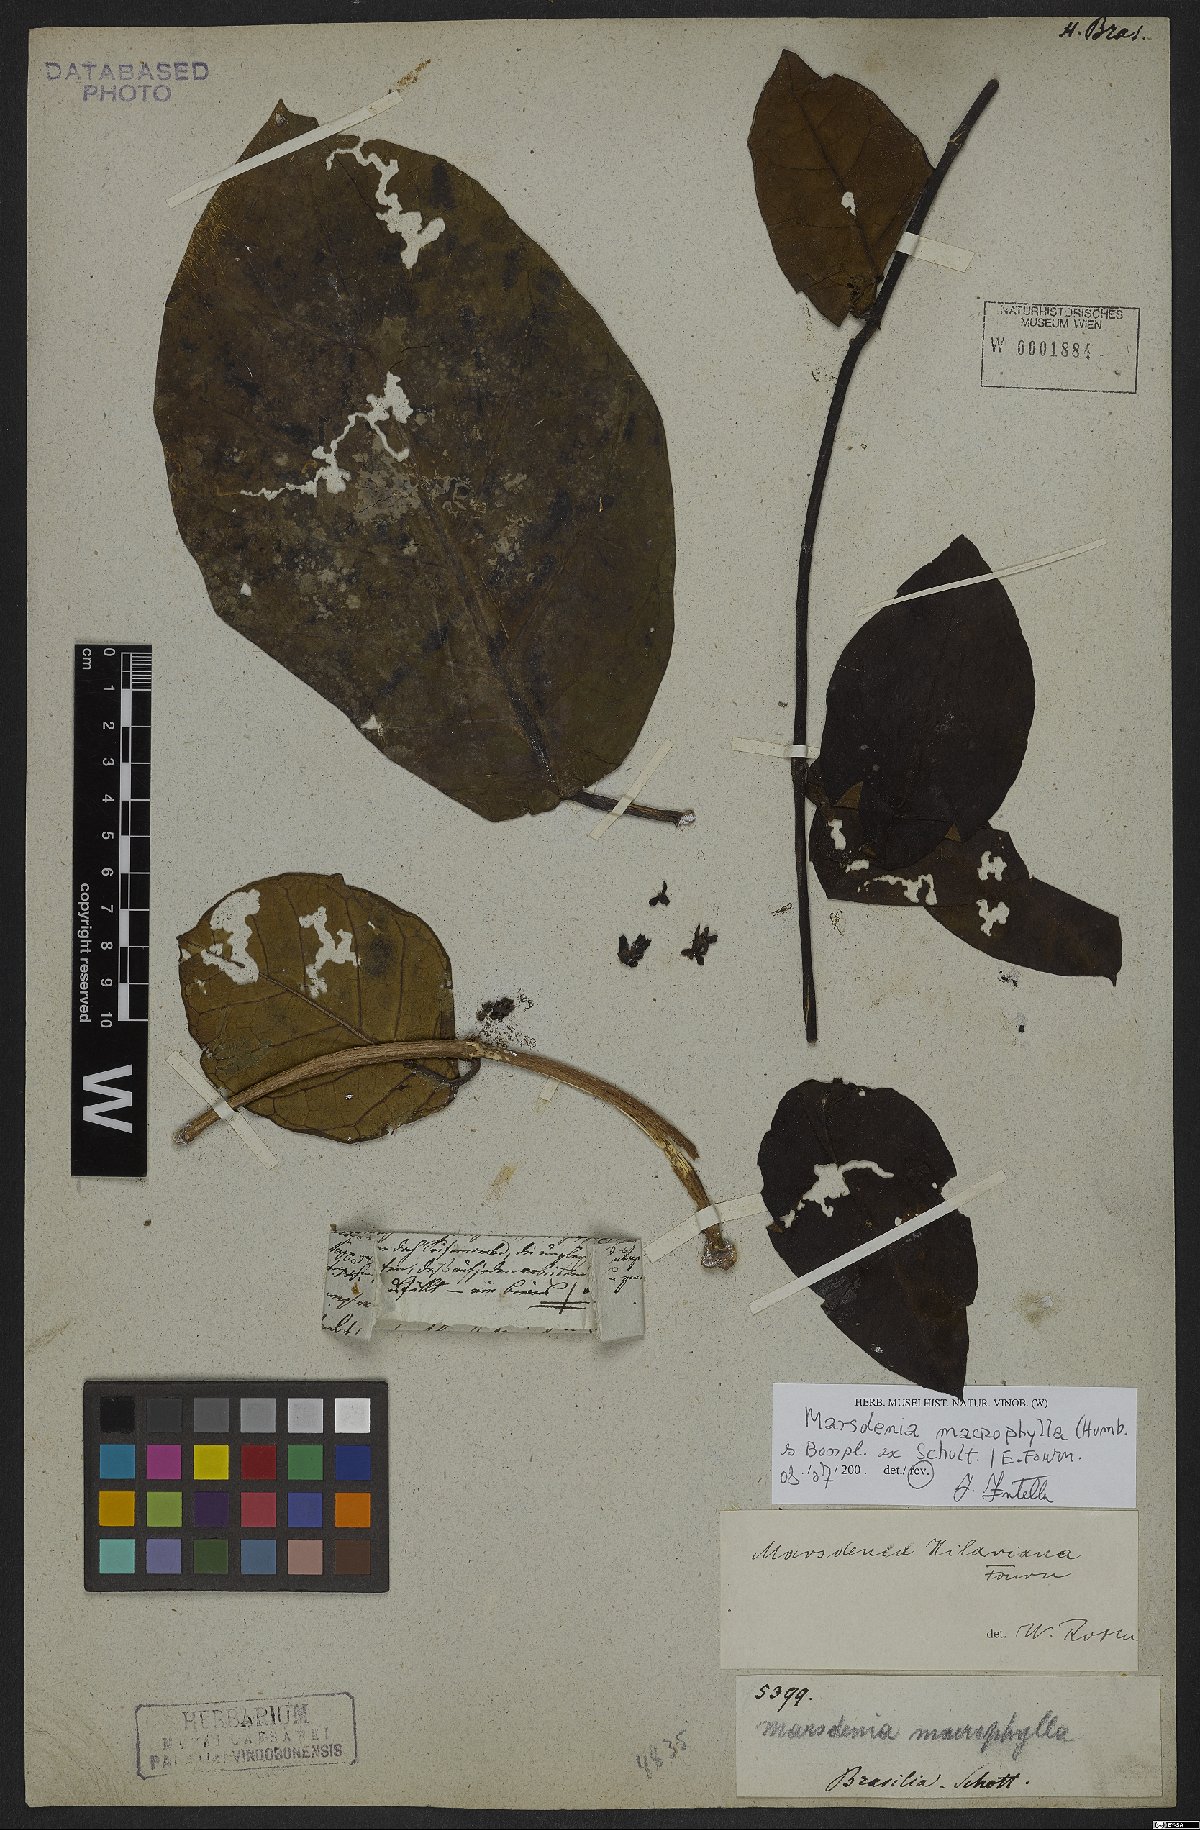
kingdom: Plantae
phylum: Tracheophyta
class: Magnoliopsida
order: Gentianales
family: Apocynaceae
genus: Ruehssia
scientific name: Ruehssia macrophylla
